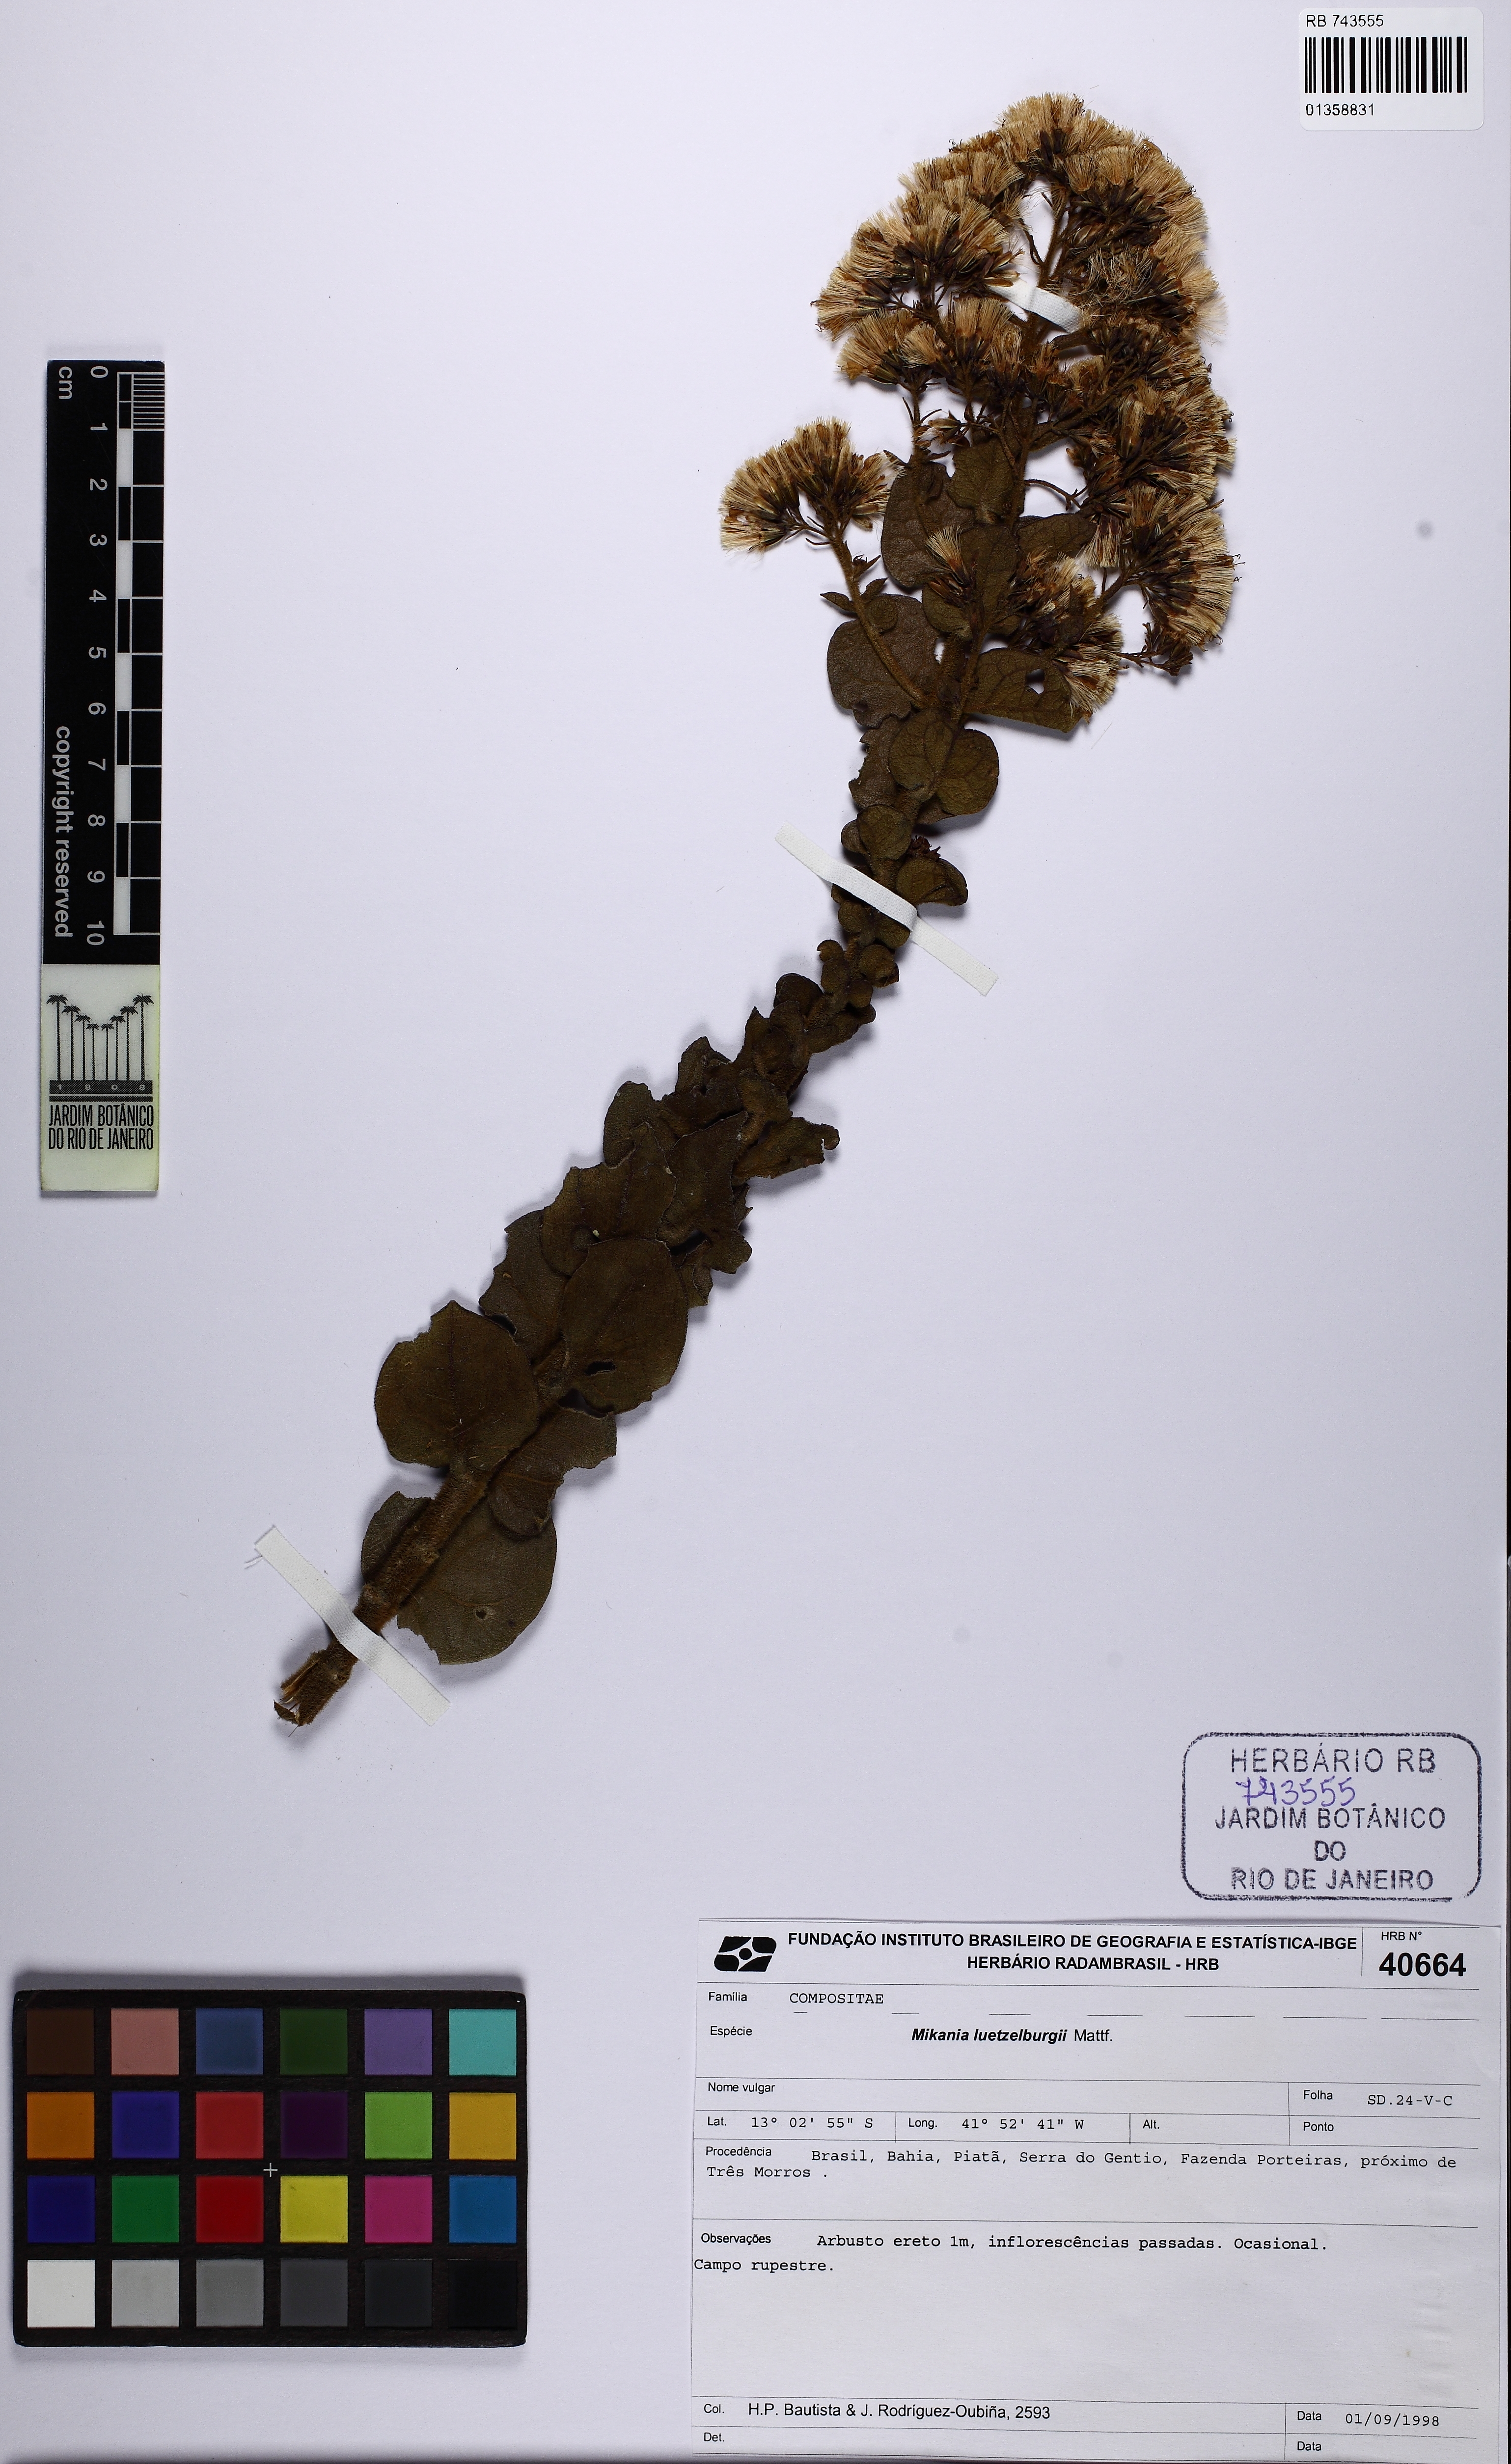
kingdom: Plantae
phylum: Tracheophyta
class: Magnoliopsida
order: Asterales
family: Asteraceae
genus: Mikania
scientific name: Mikania luetzelburgii
